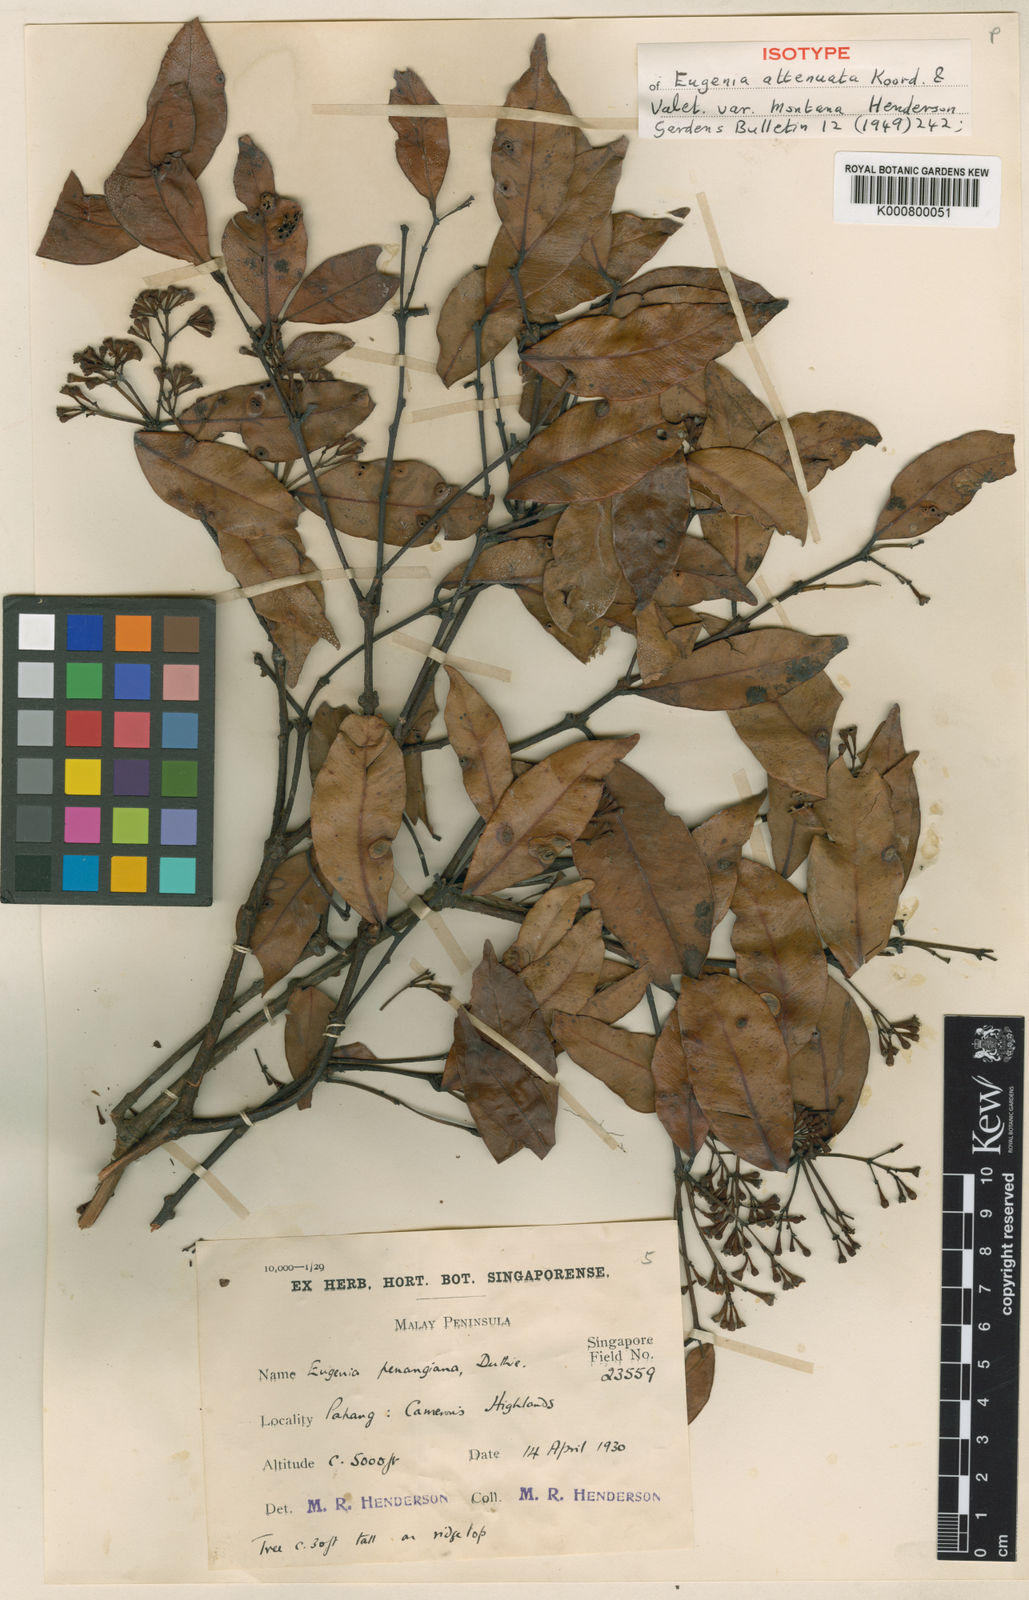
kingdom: Plantae
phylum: Tracheophyta
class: Magnoliopsida
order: Myrtales
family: Myrtaceae
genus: Syzygium
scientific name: Syzygium attenuatum
